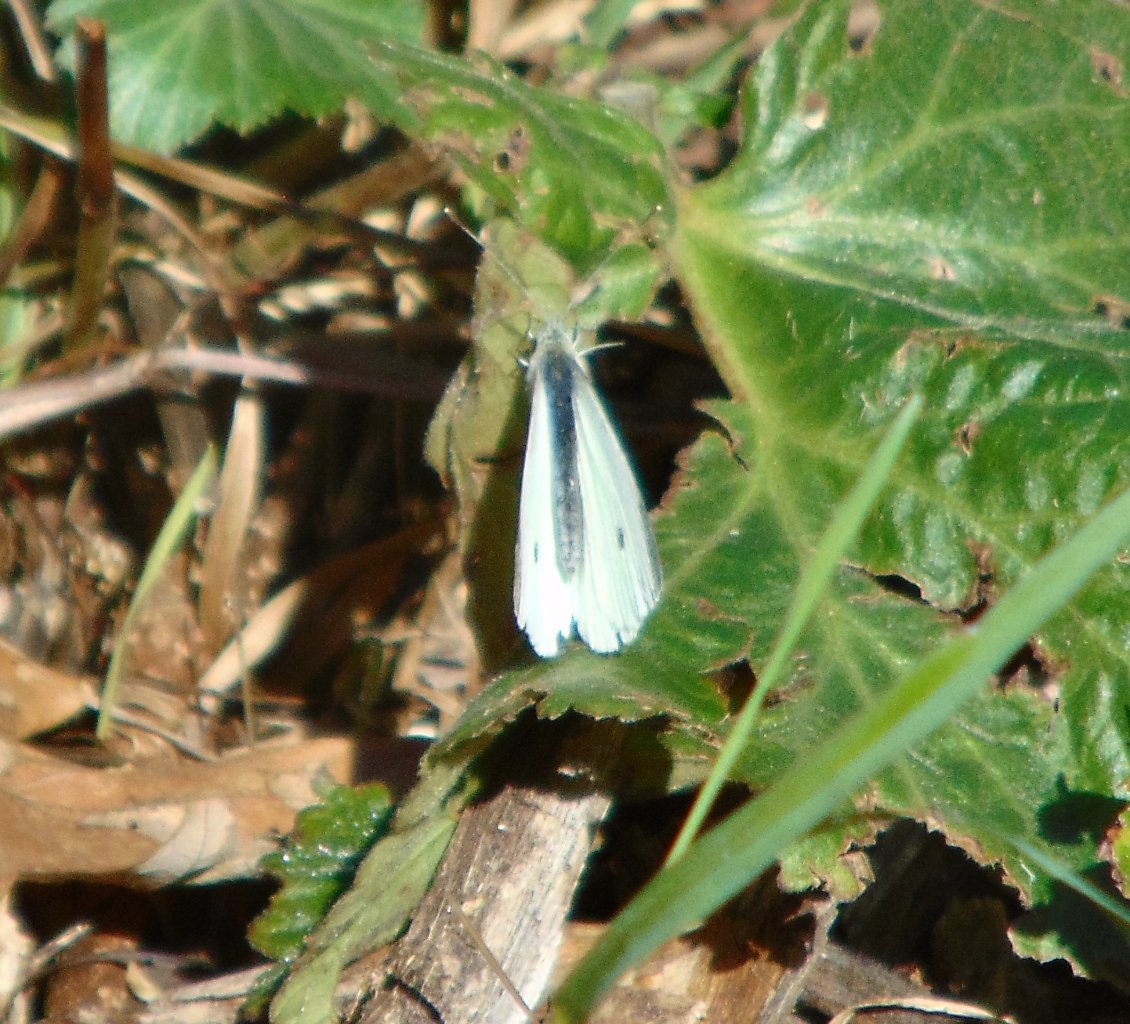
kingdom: Animalia
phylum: Arthropoda
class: Insecta
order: Lepidoptera
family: Pieridae
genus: Pieris
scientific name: Pieris rapae
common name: Cabbage White
